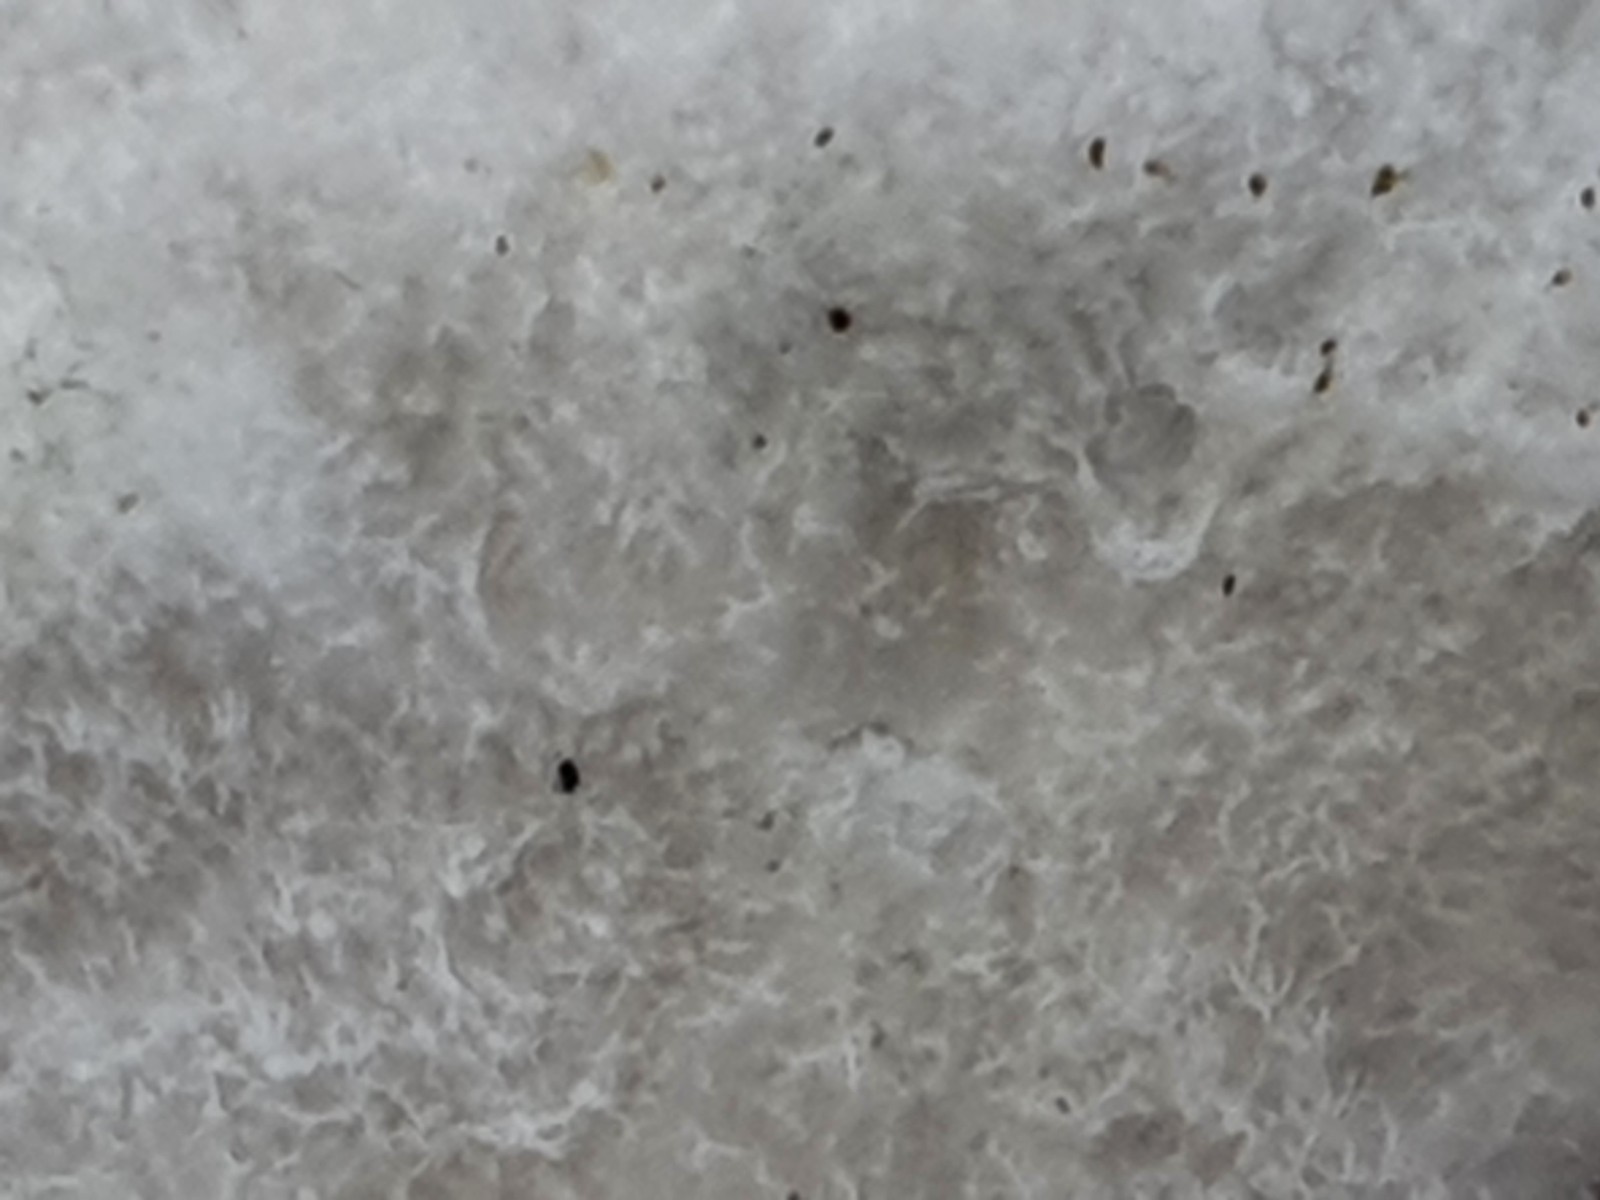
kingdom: Fungi
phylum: Basidiomycota
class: Agaricomycetes
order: Polyporales
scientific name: Polyporales
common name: poresvampordenen
